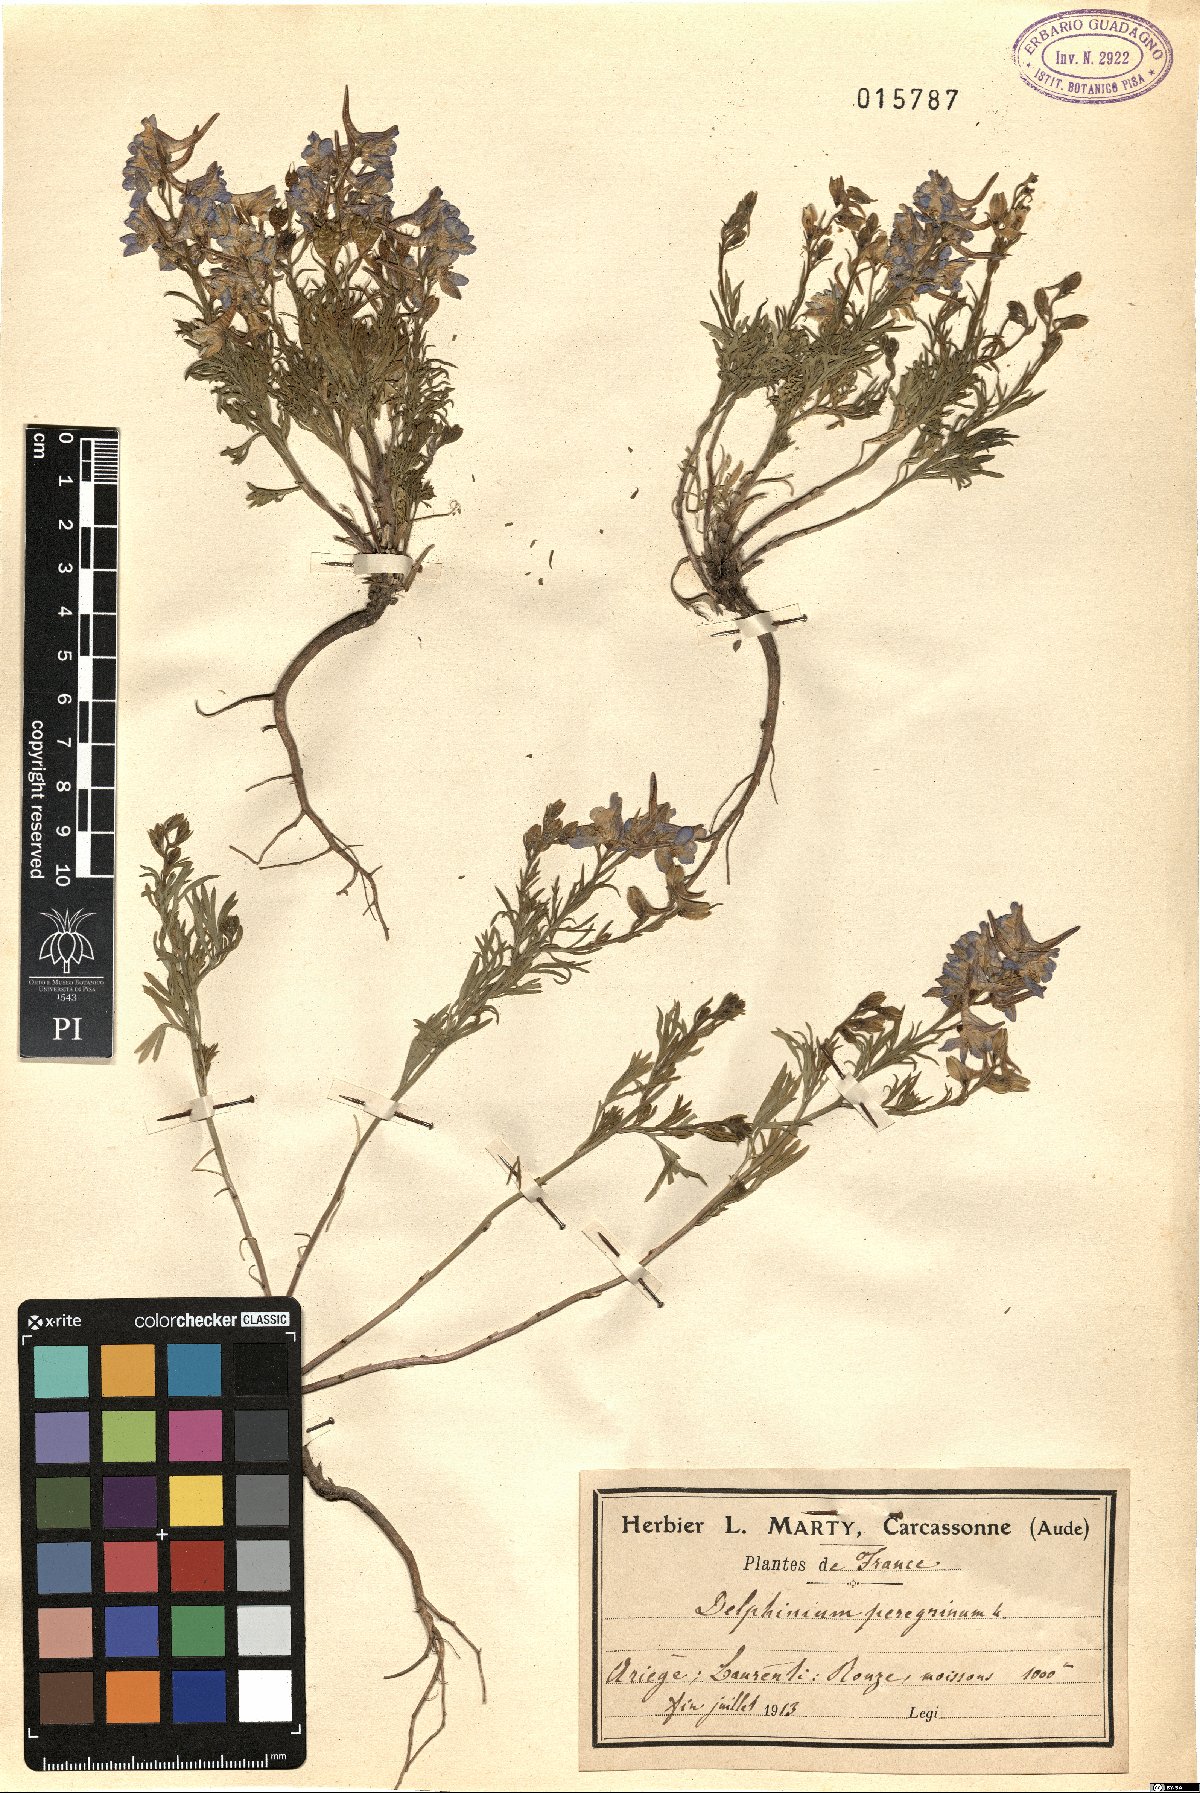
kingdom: Plantae
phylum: Tracheophyta
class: Magnoliopsida
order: Ranunculales
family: Ranunculaceae
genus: Delphinium
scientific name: Delphinium peregrinum
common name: Violet larkspur
